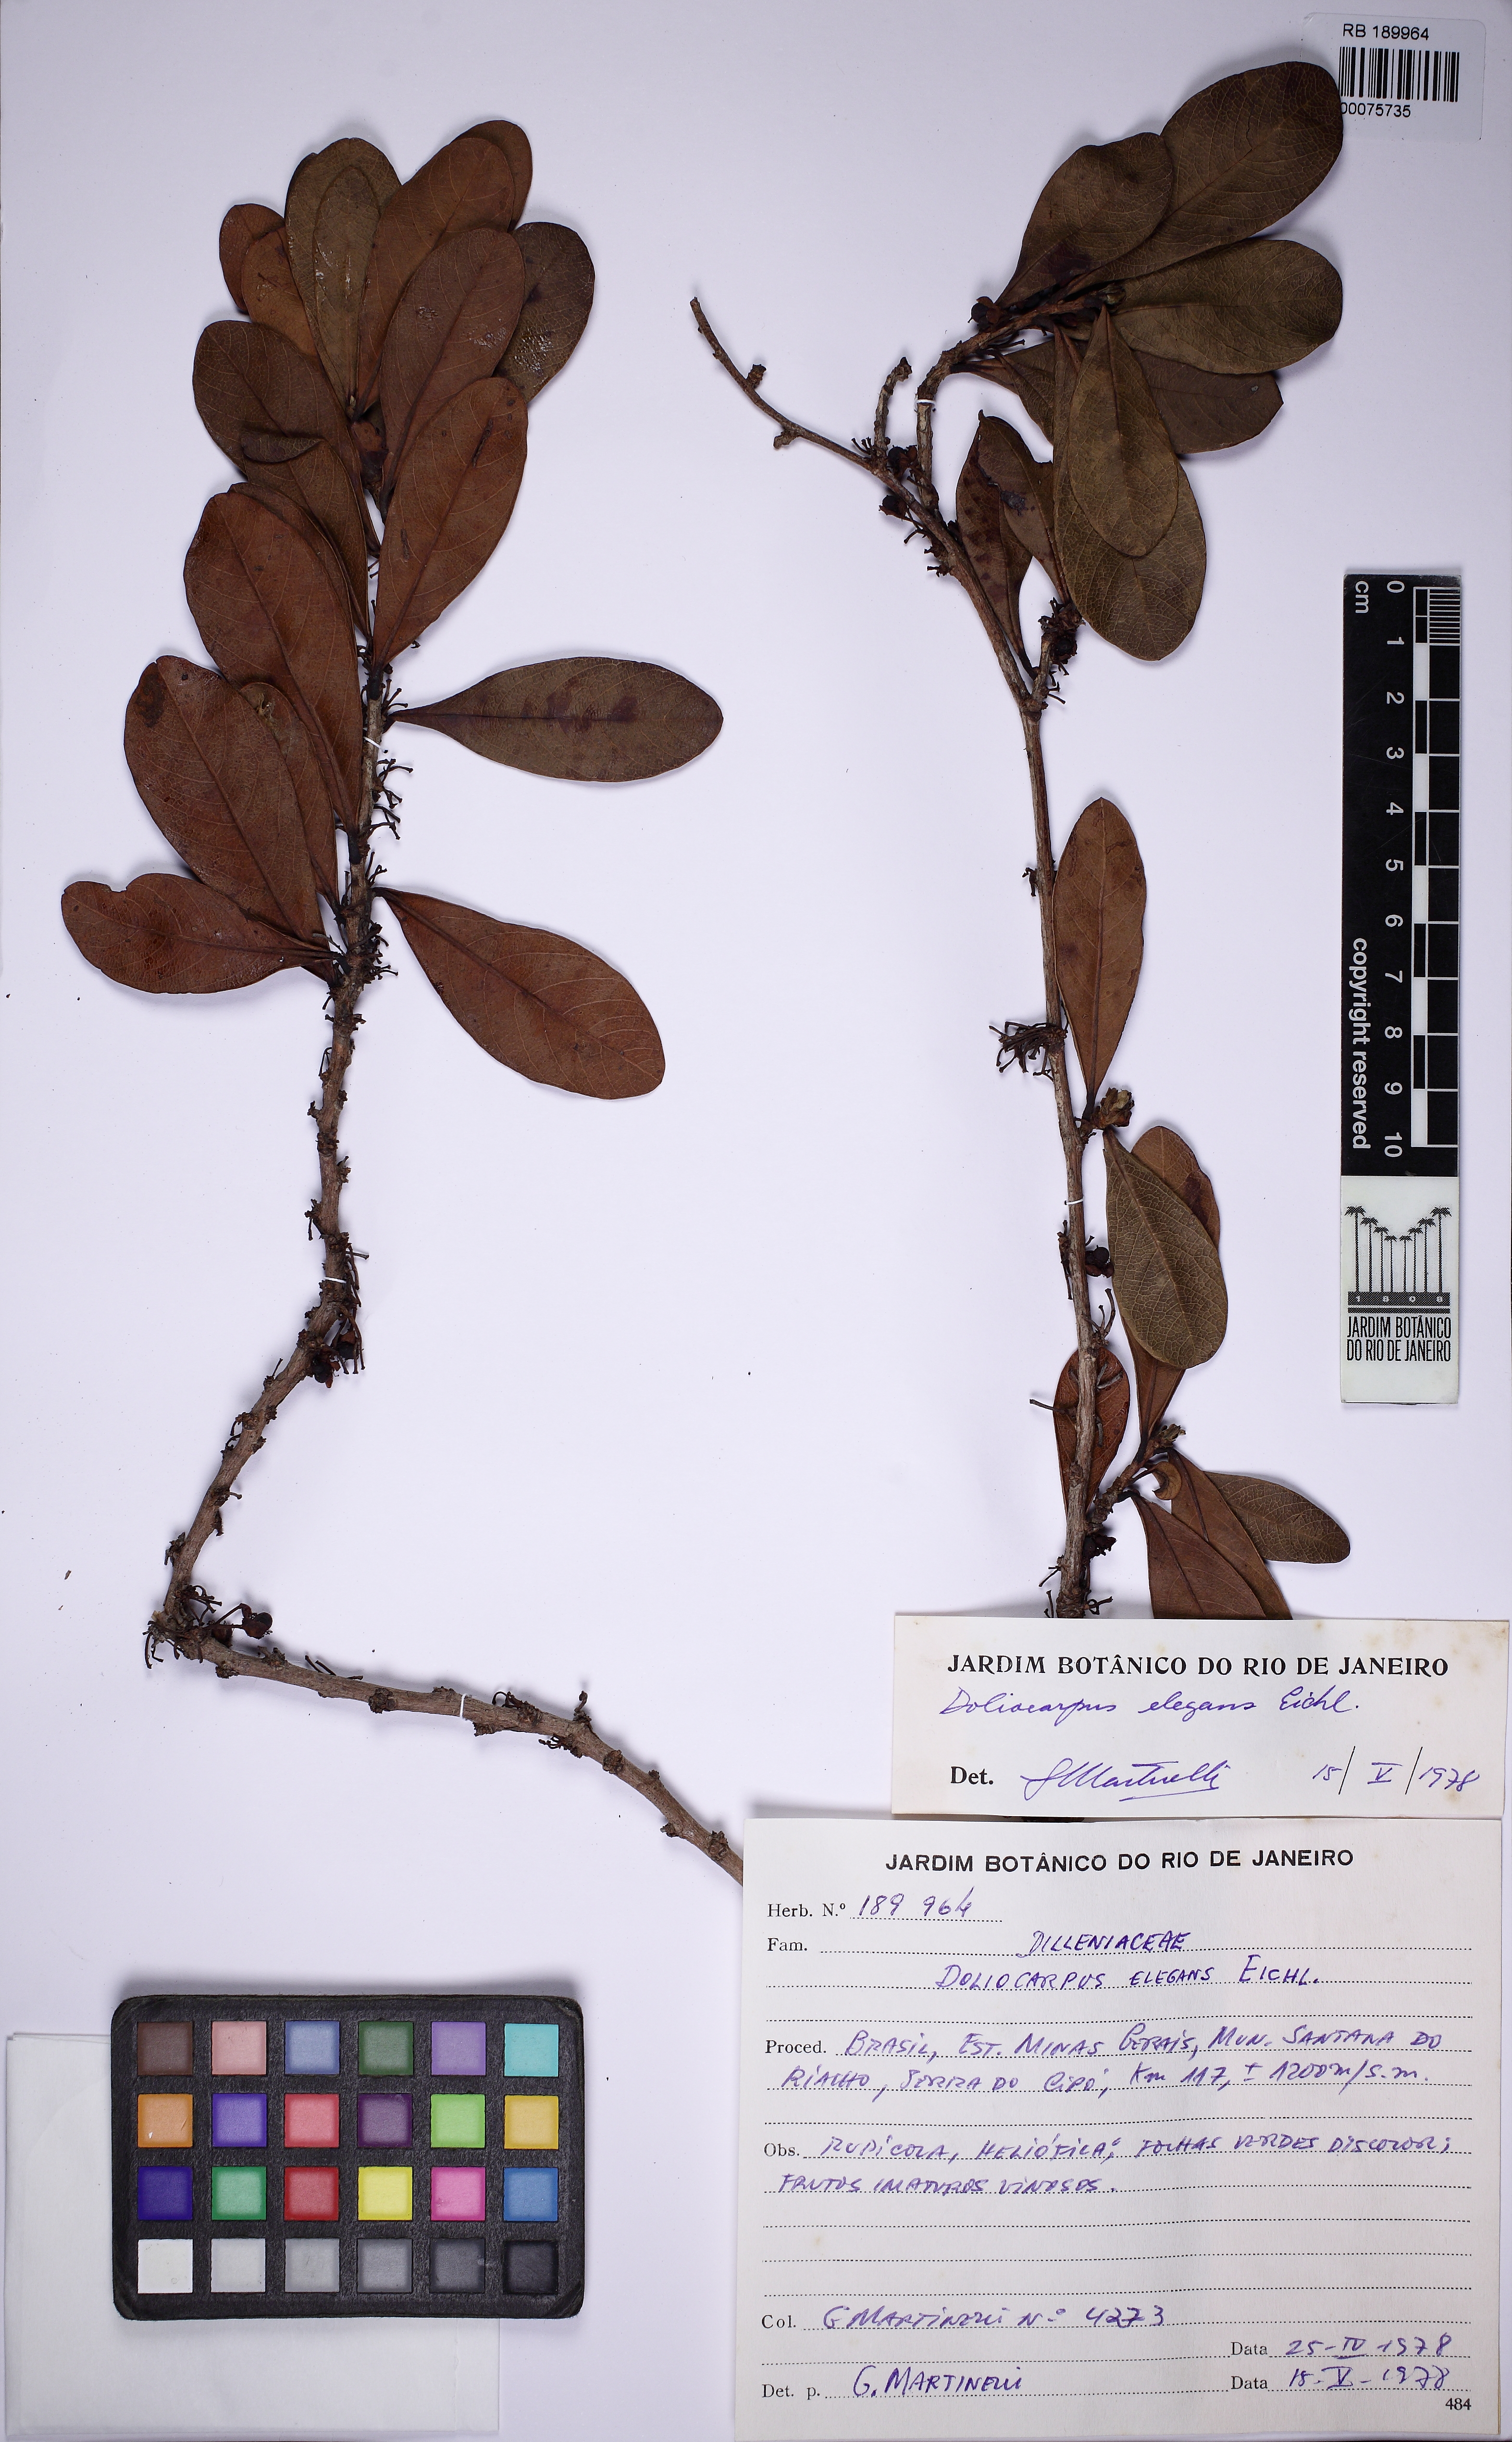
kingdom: Plantae
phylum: Tracheophyta
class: Magnoliopsida
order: Dilleniales
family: Dilleniaceae
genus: Doliocarpus
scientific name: Doliocarpus elegans
